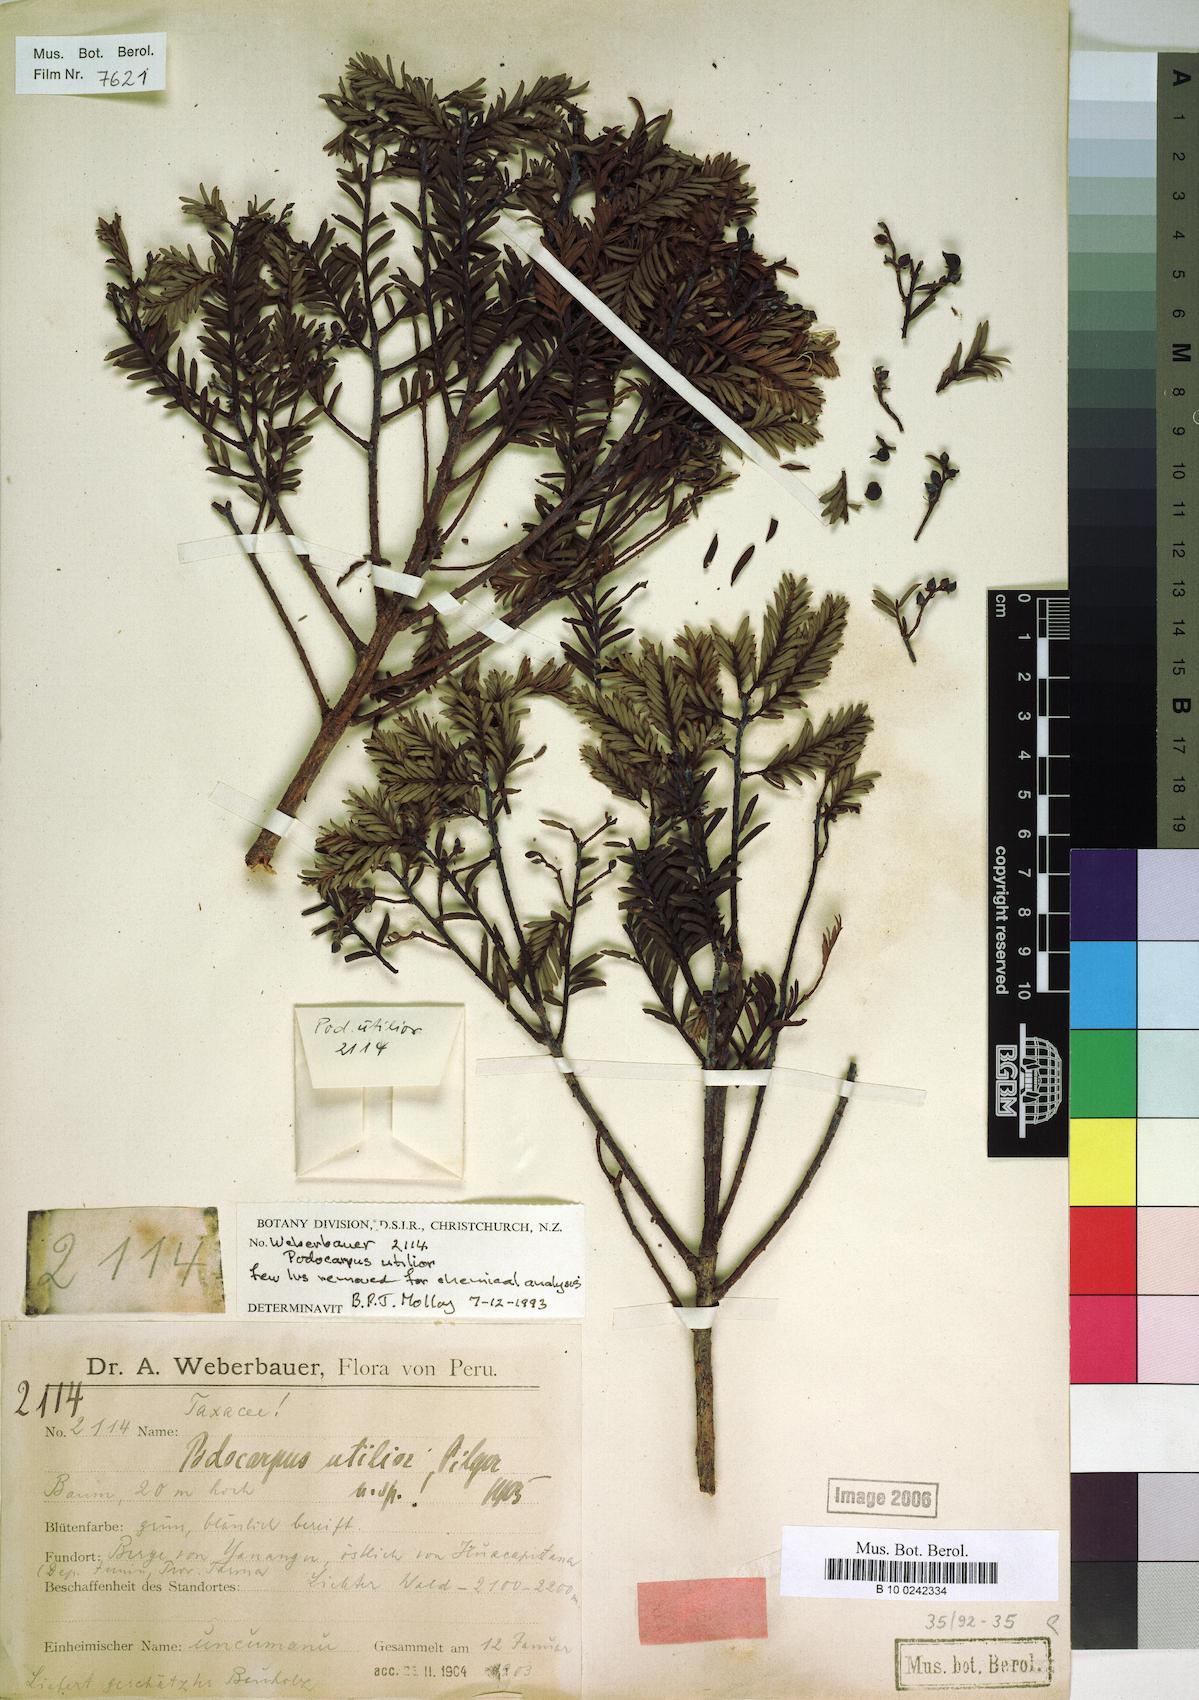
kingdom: Plantae
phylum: Tracheophyta
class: Pinopsida
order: Pinales
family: Podocarpaceae
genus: Prumnopitys
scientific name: Prumnopitys harmsiana
